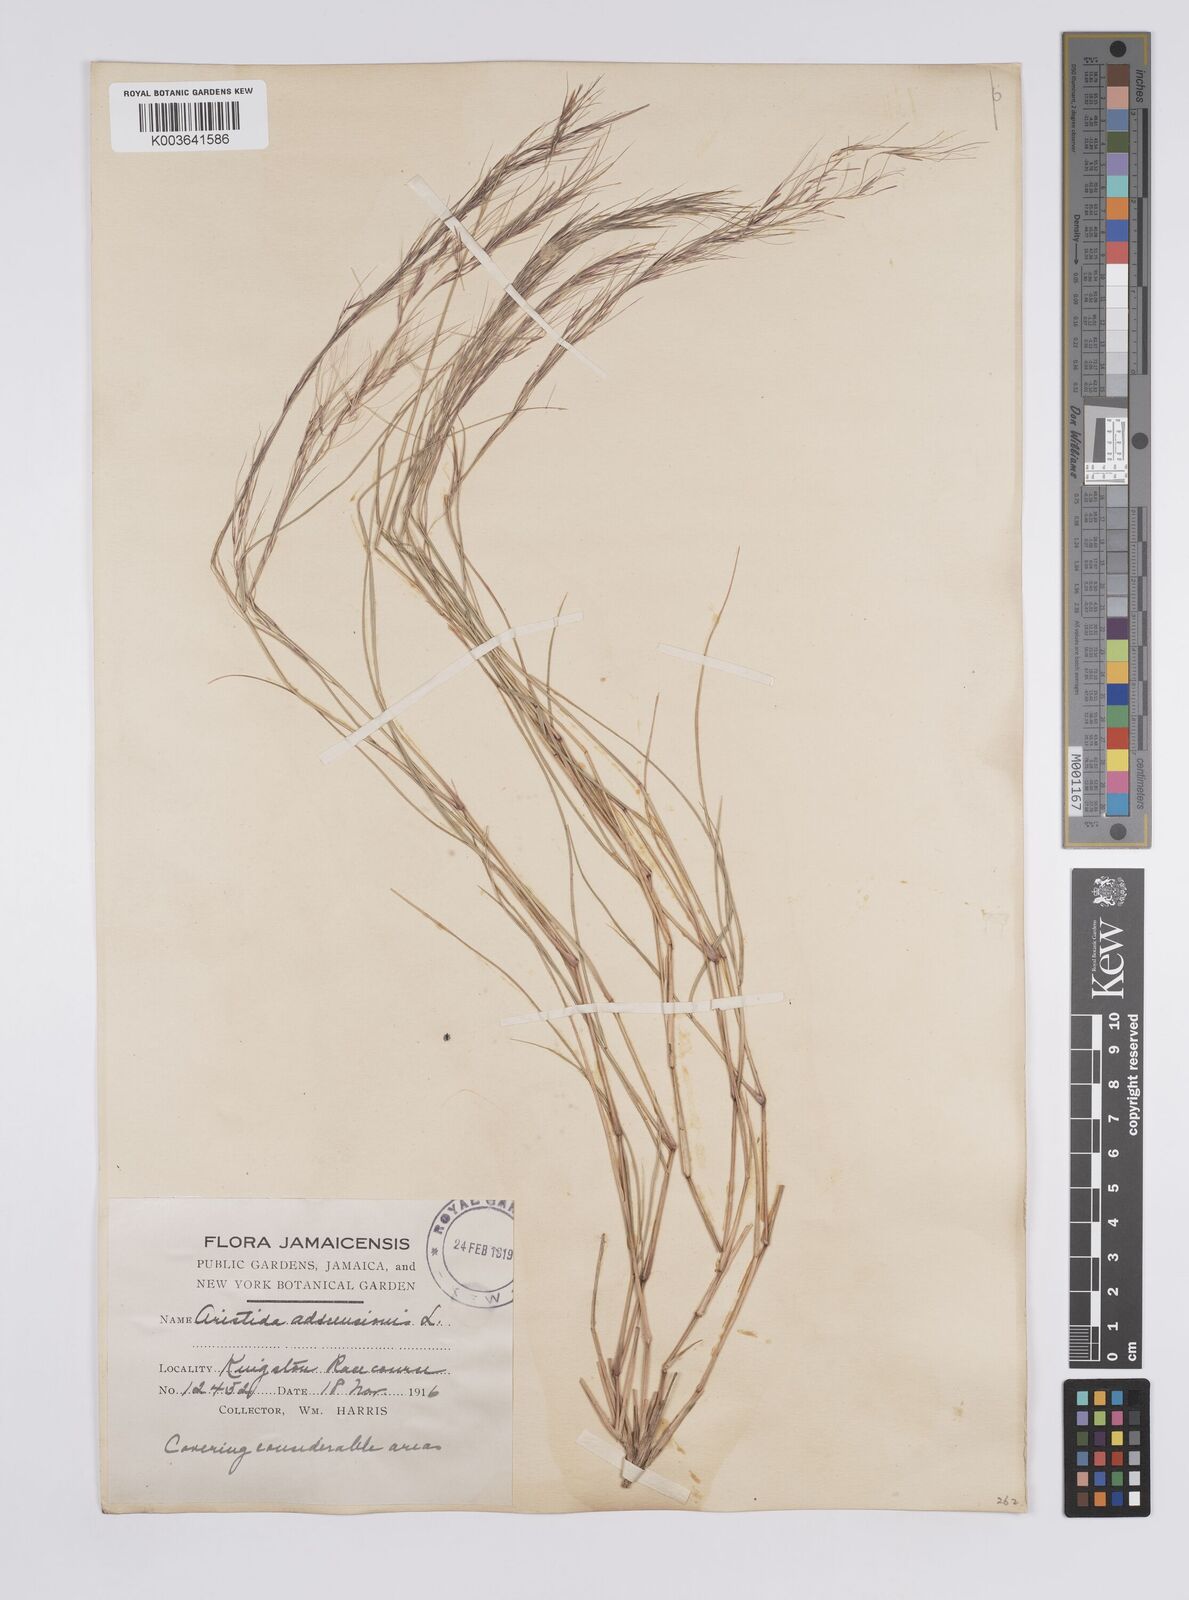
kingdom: Plantae
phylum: Tracheophyta
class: Liliopsida
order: Poales
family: Poaceae
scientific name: Poaceae
